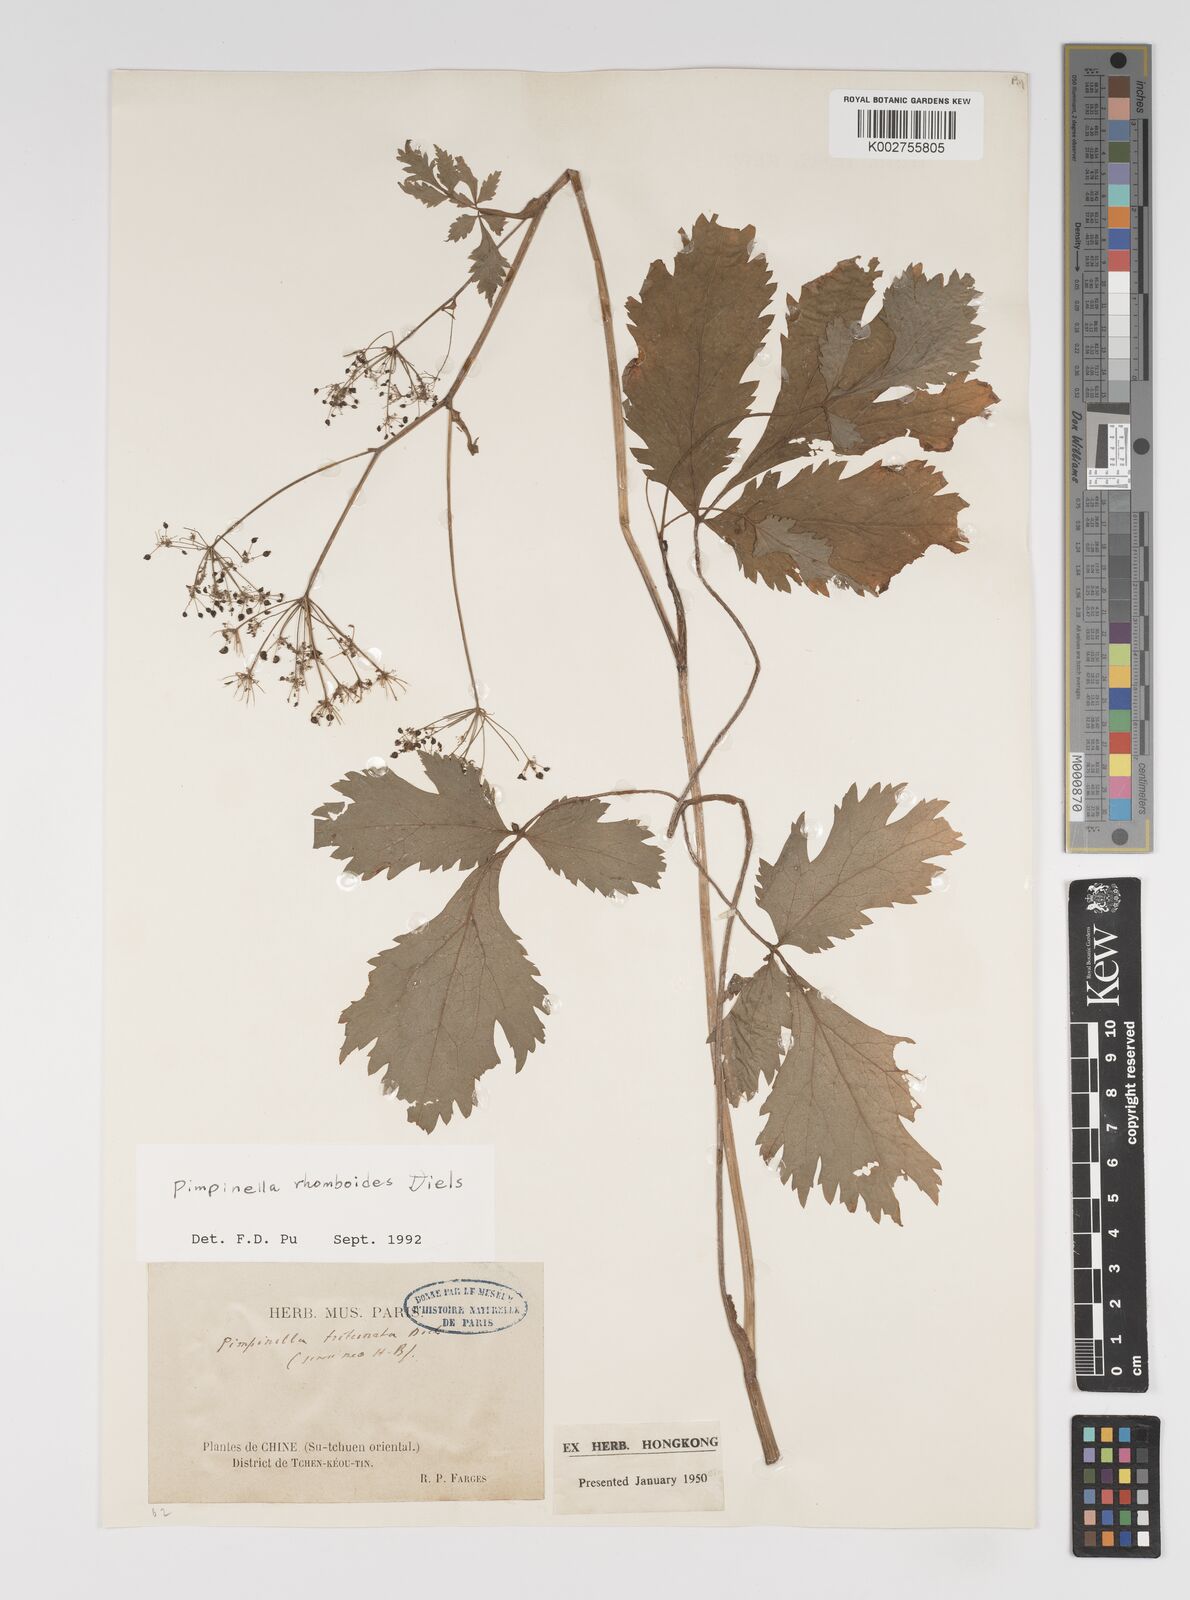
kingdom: Plantae
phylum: Tracheophyta
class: Magnoliopsida
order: Apiales
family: Apiaceae
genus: Pimpinella
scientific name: Pimpinella triternata
